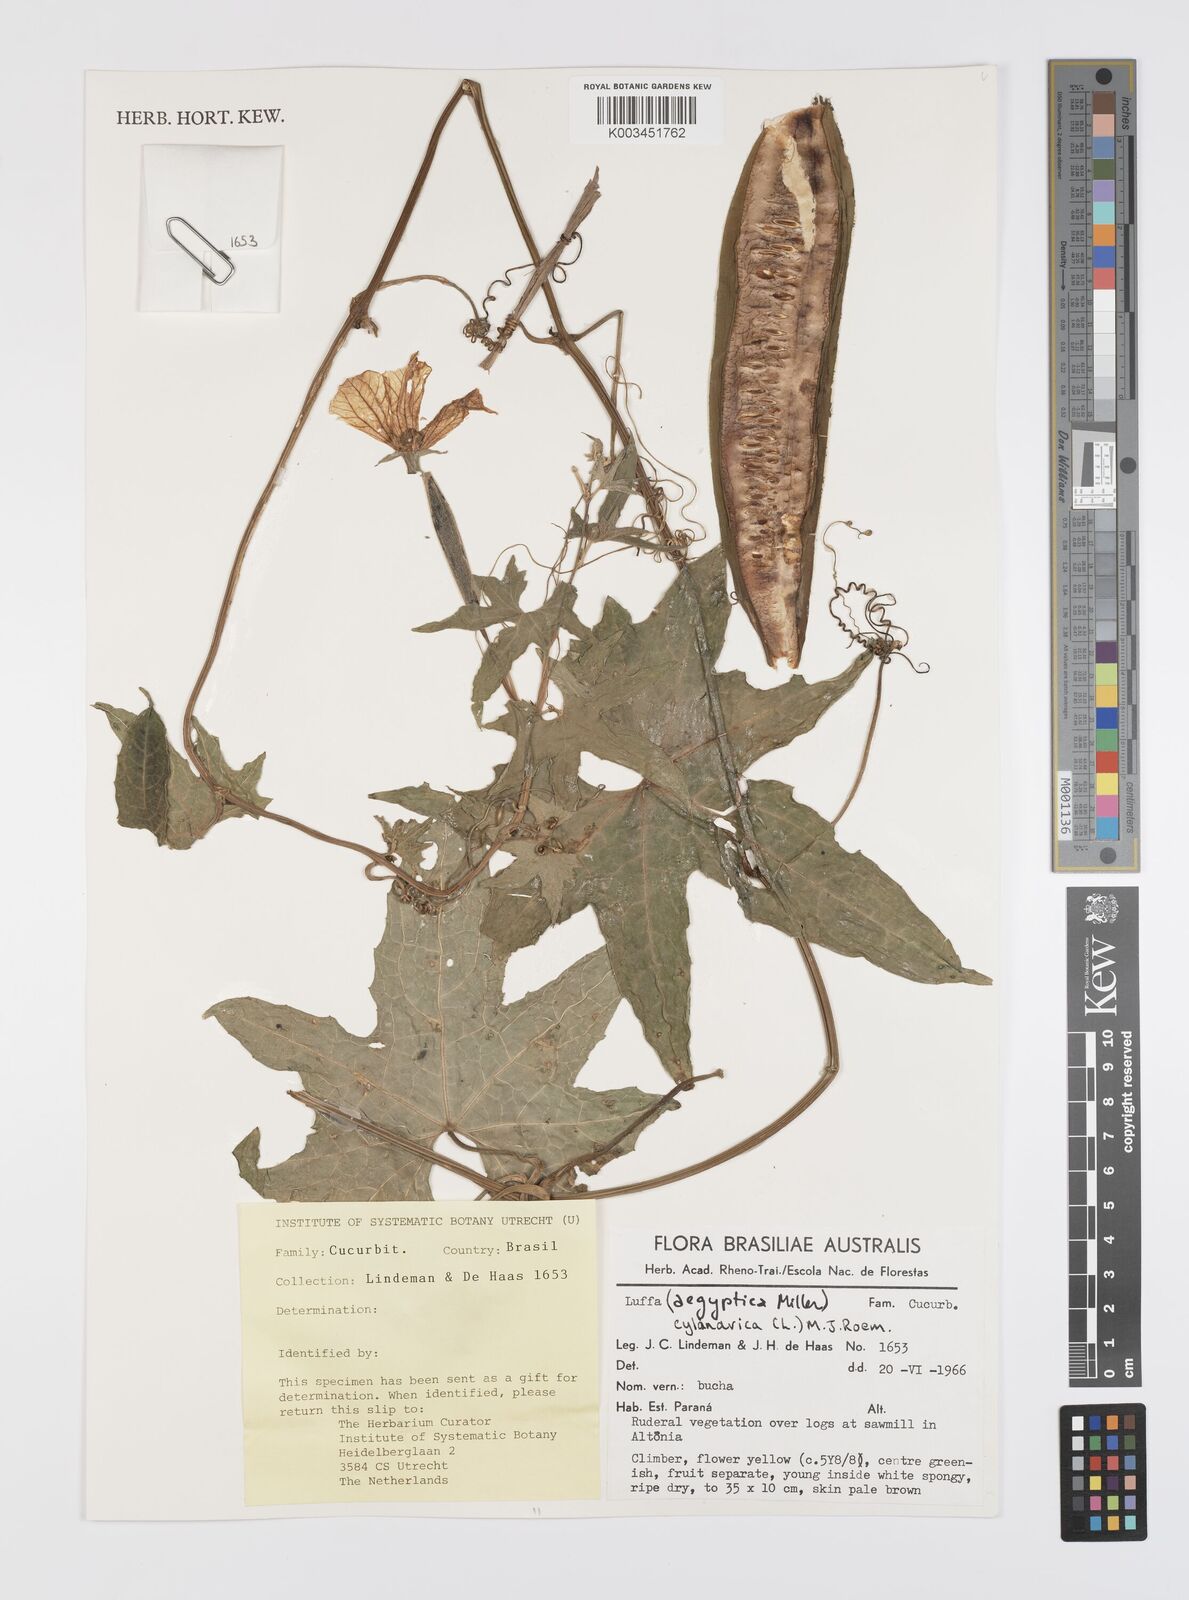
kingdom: Plantae
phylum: Tracheophyta
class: Magnoliopsida
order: Cucurbitales
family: Cucurbitaceae
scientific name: Cucurbitaceae
